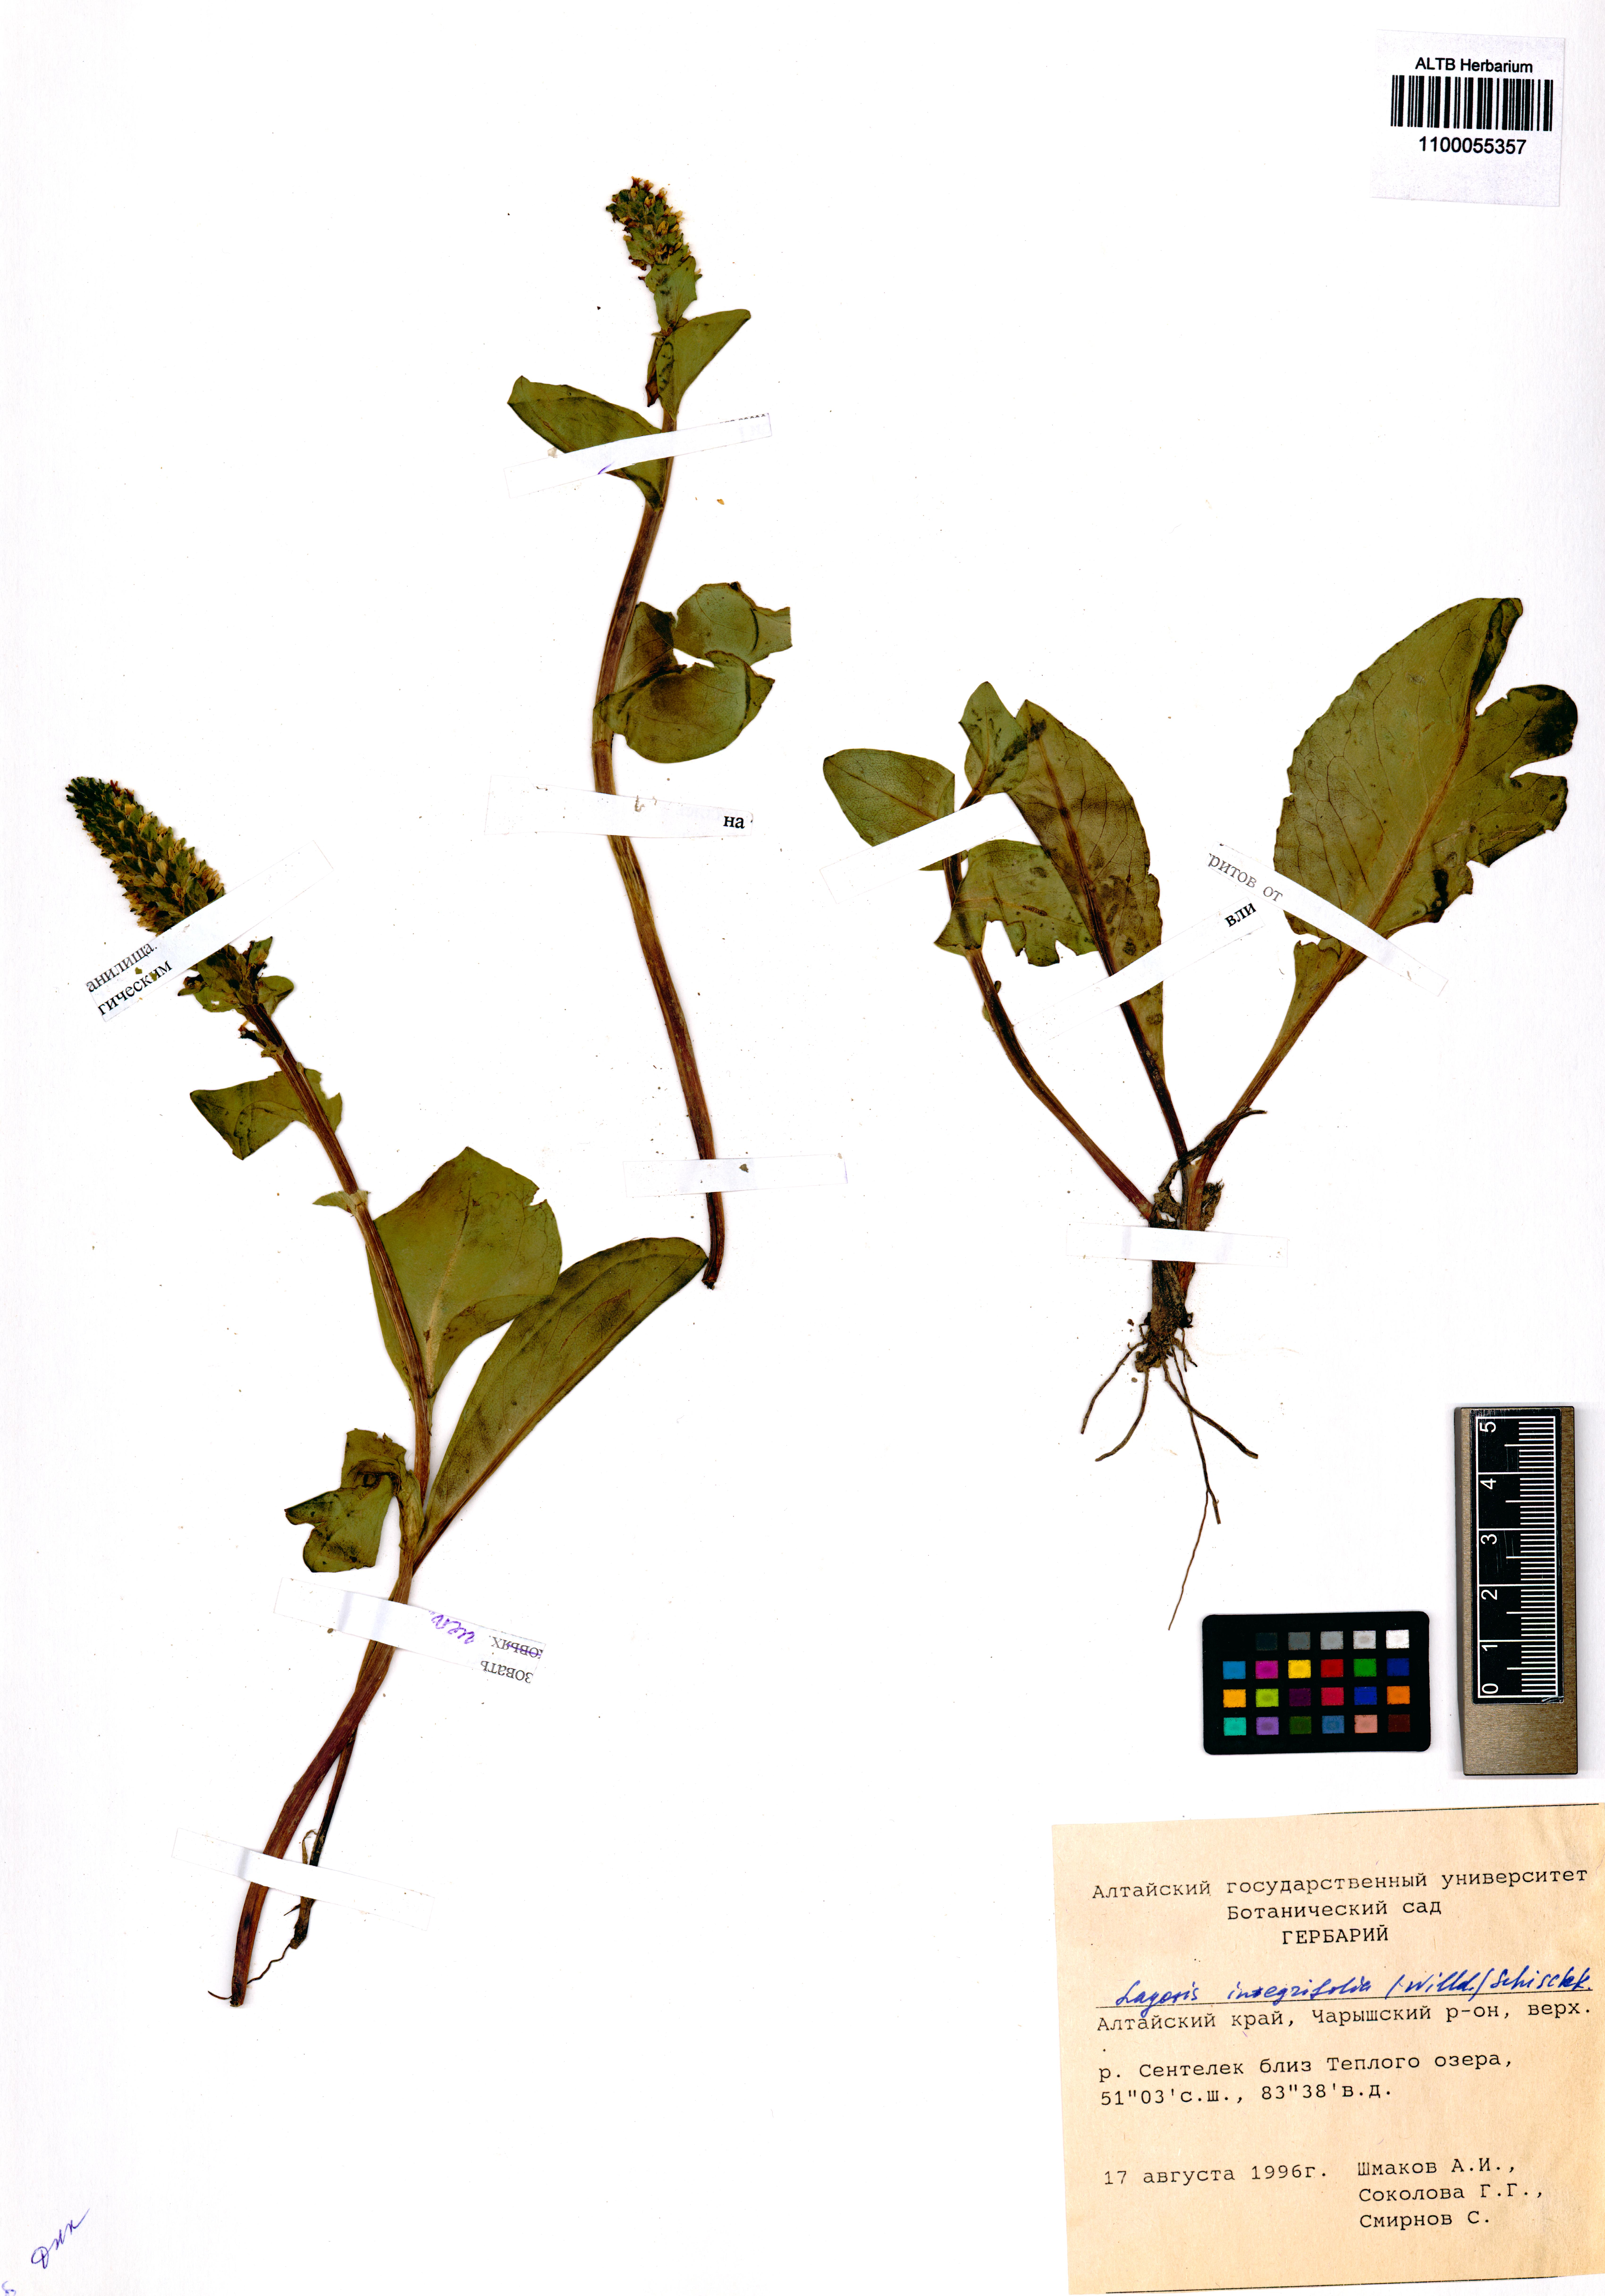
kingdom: Plantae
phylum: Tracheophyta
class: Magnoliopsida
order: Lamiales
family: Plantaginaceae
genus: Lagotis
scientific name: Lagotis integrifolia
